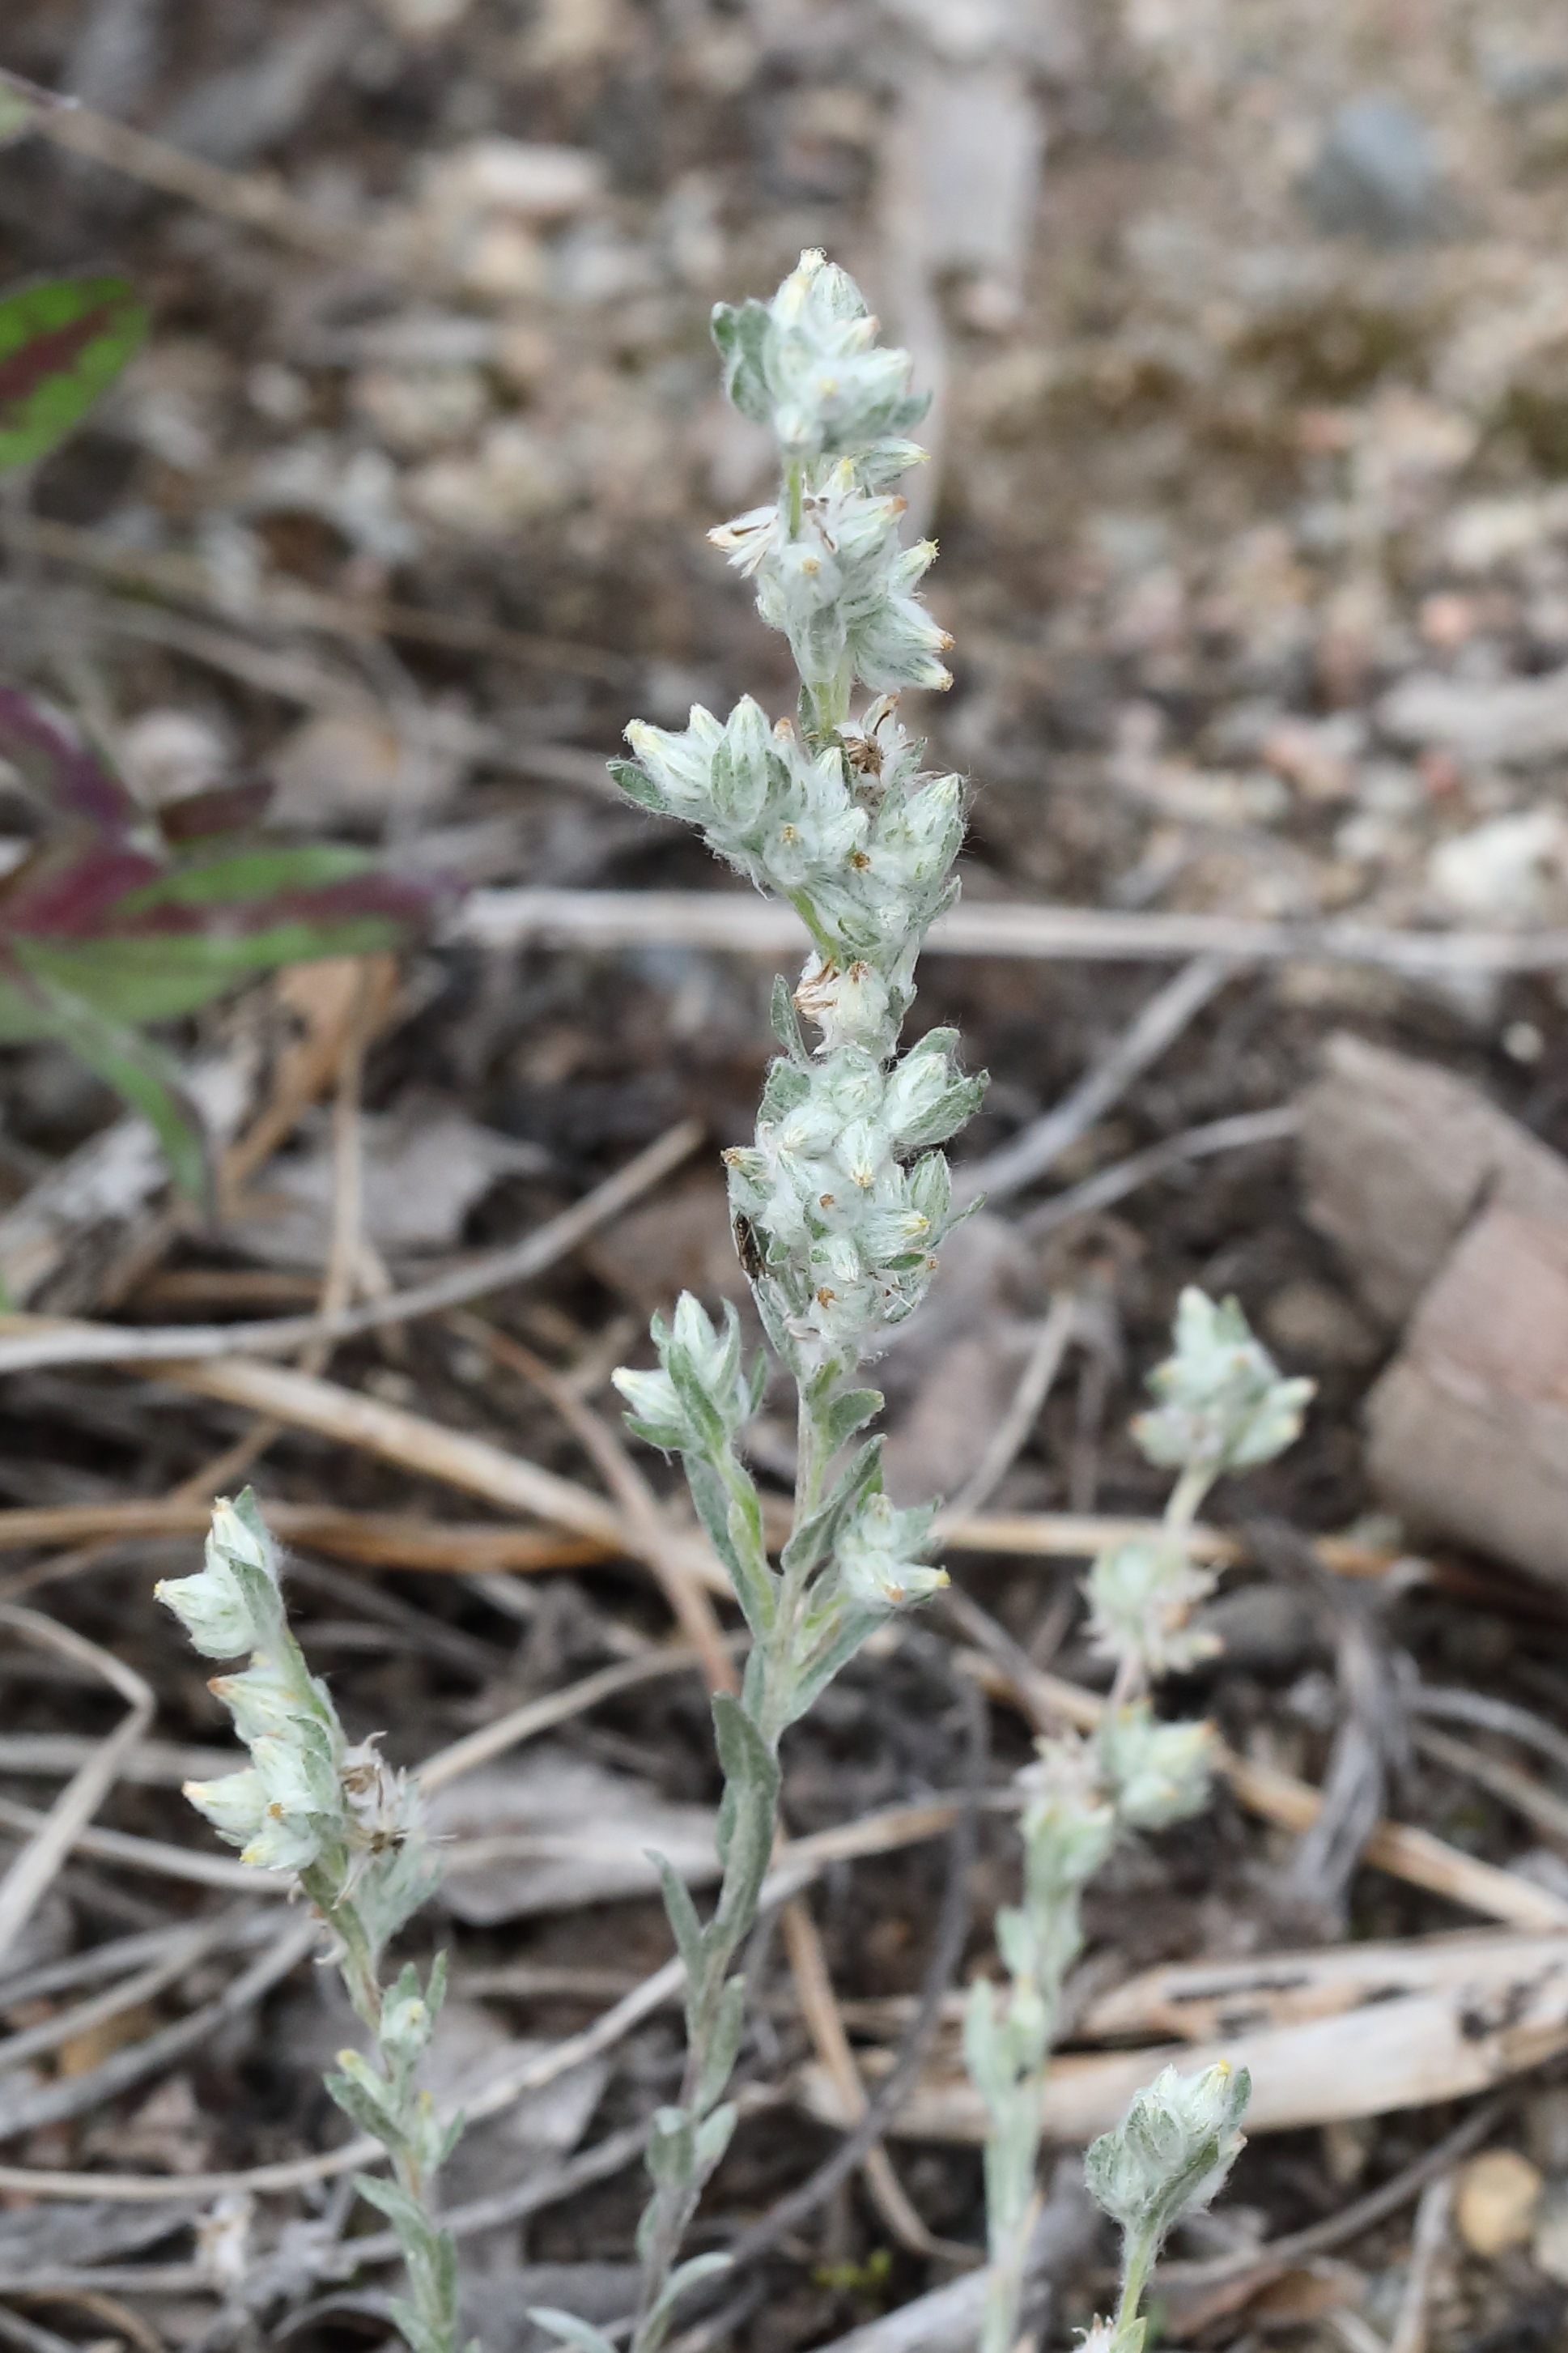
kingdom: Plantae
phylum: Tracheophyta
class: Magnoliopsida
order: Asterales
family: Asteraceae
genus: Filago
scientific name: Filago arvensis
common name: Field cudweed
